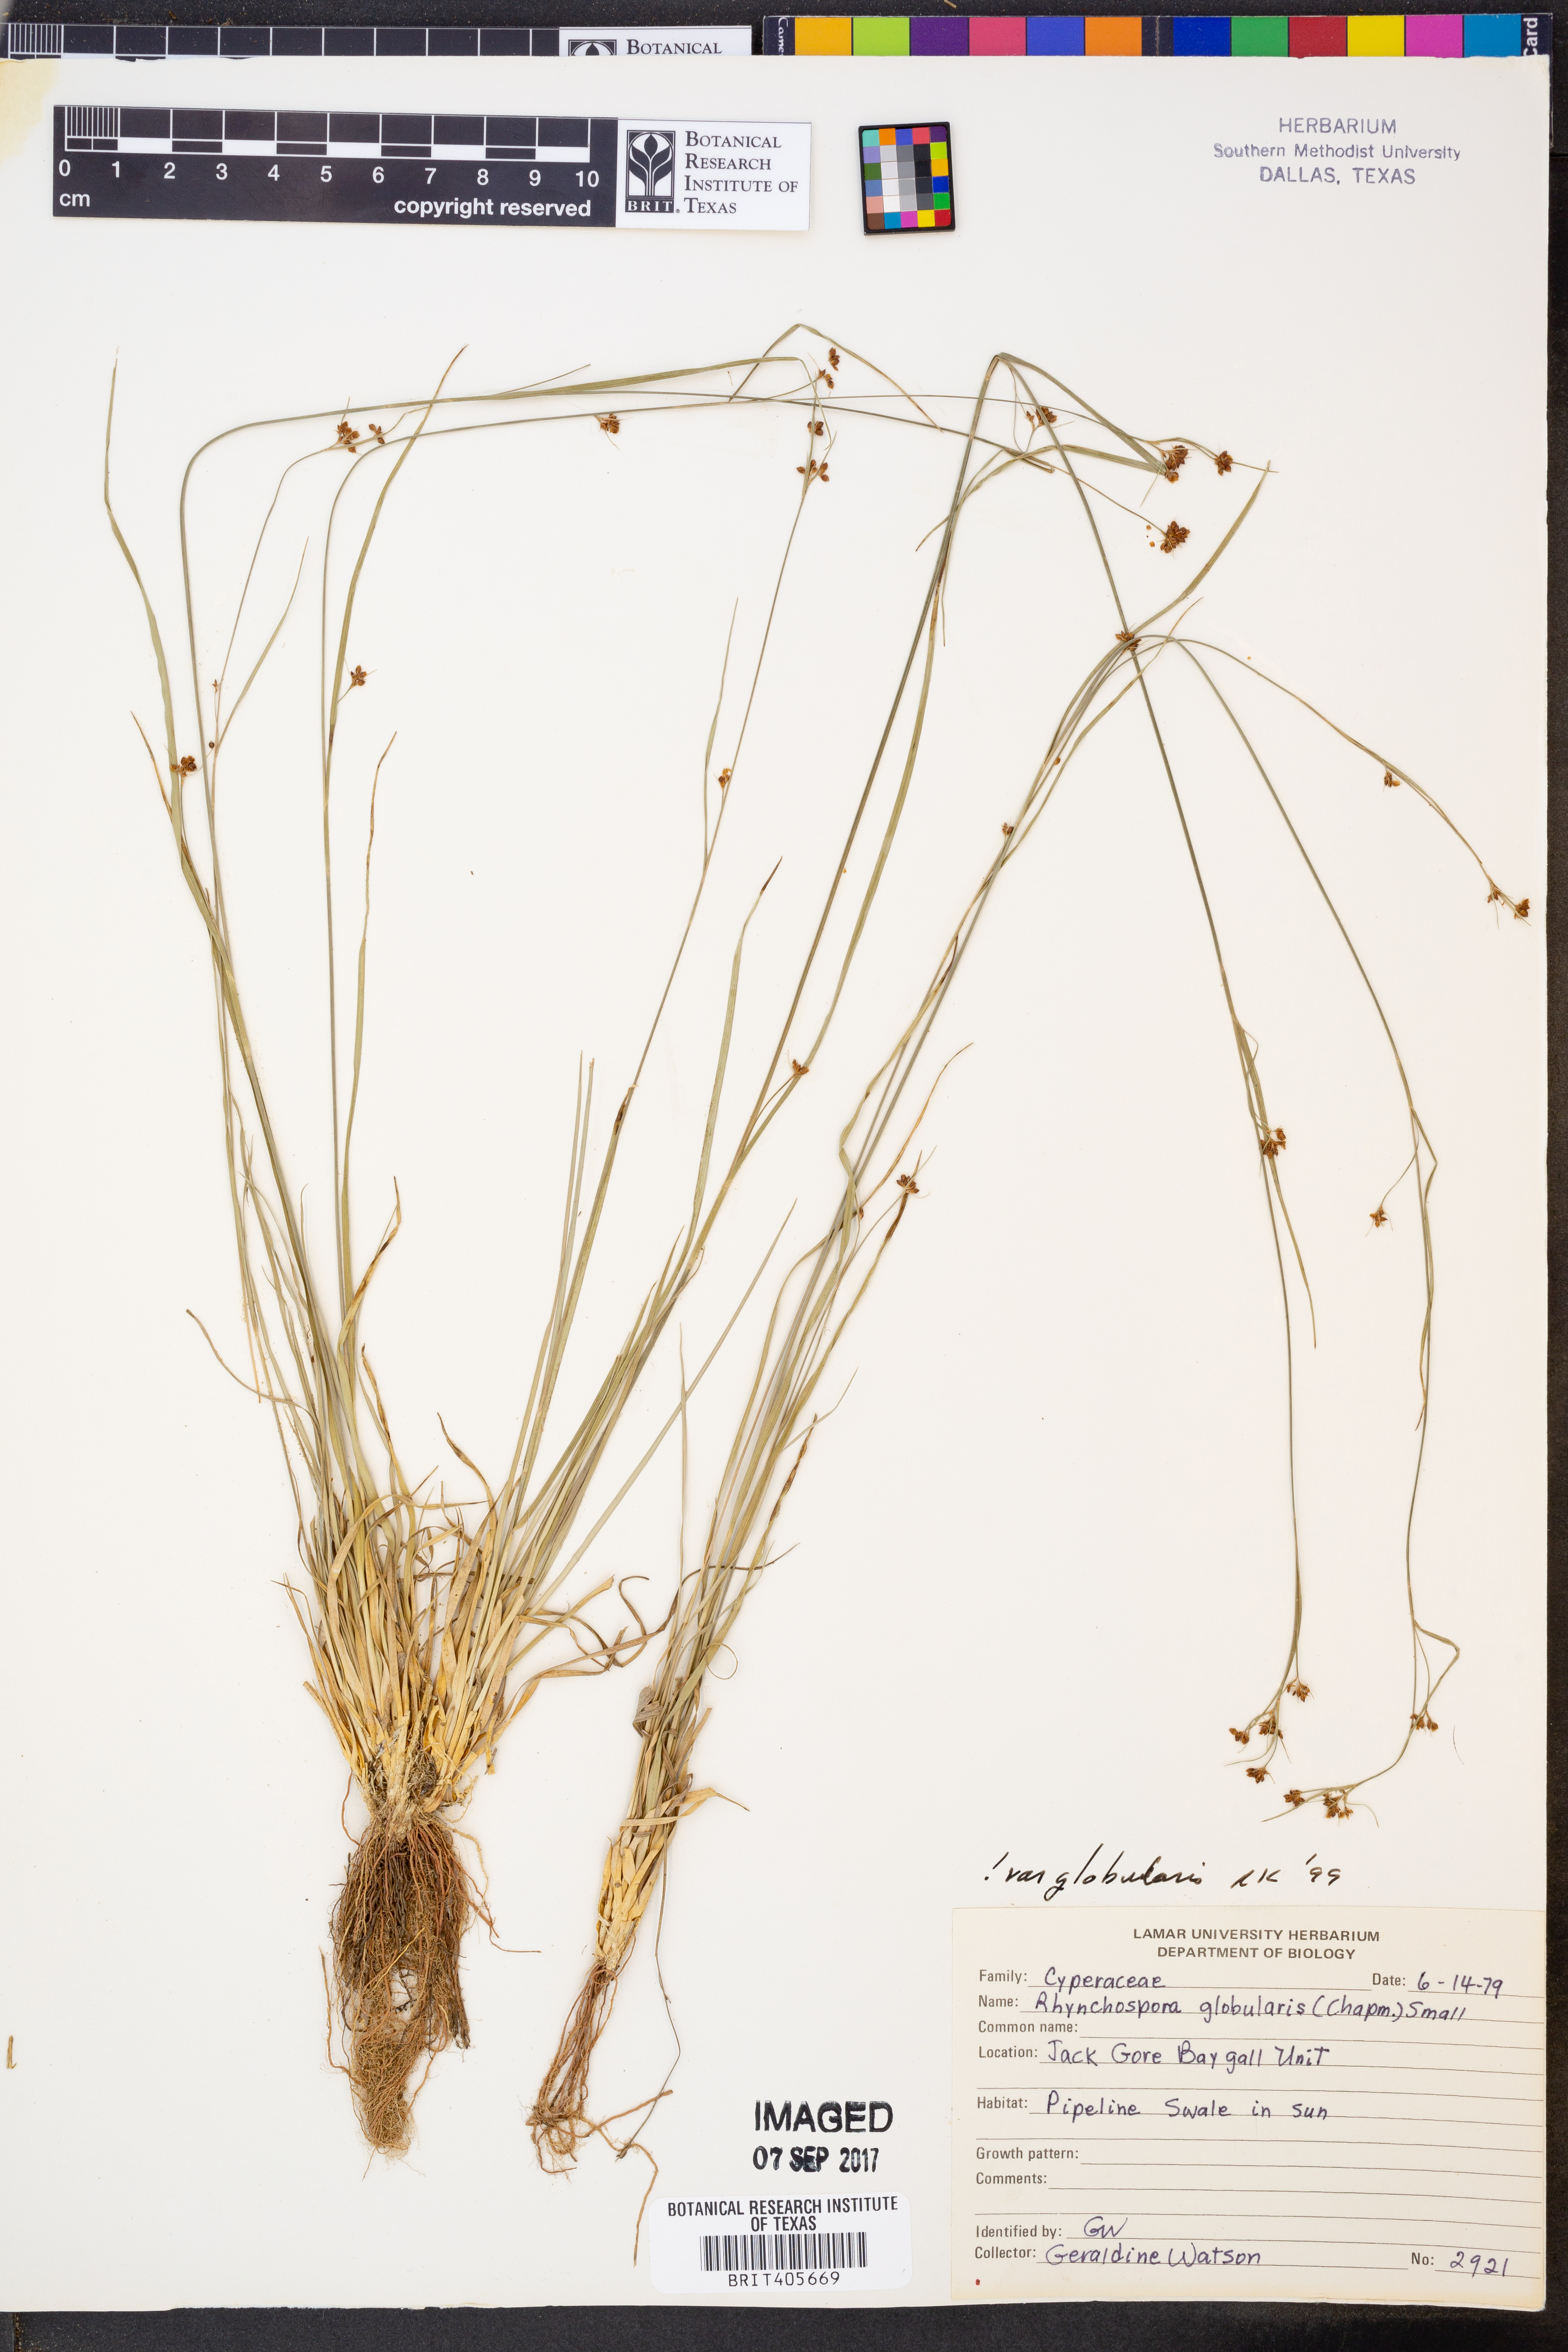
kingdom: Plantae
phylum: Tracheophyta
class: Liliopsida
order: Poales
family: Cyperaceae
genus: Rhynchospora
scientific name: Rhynchospora globularis
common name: Globe beaksedge
